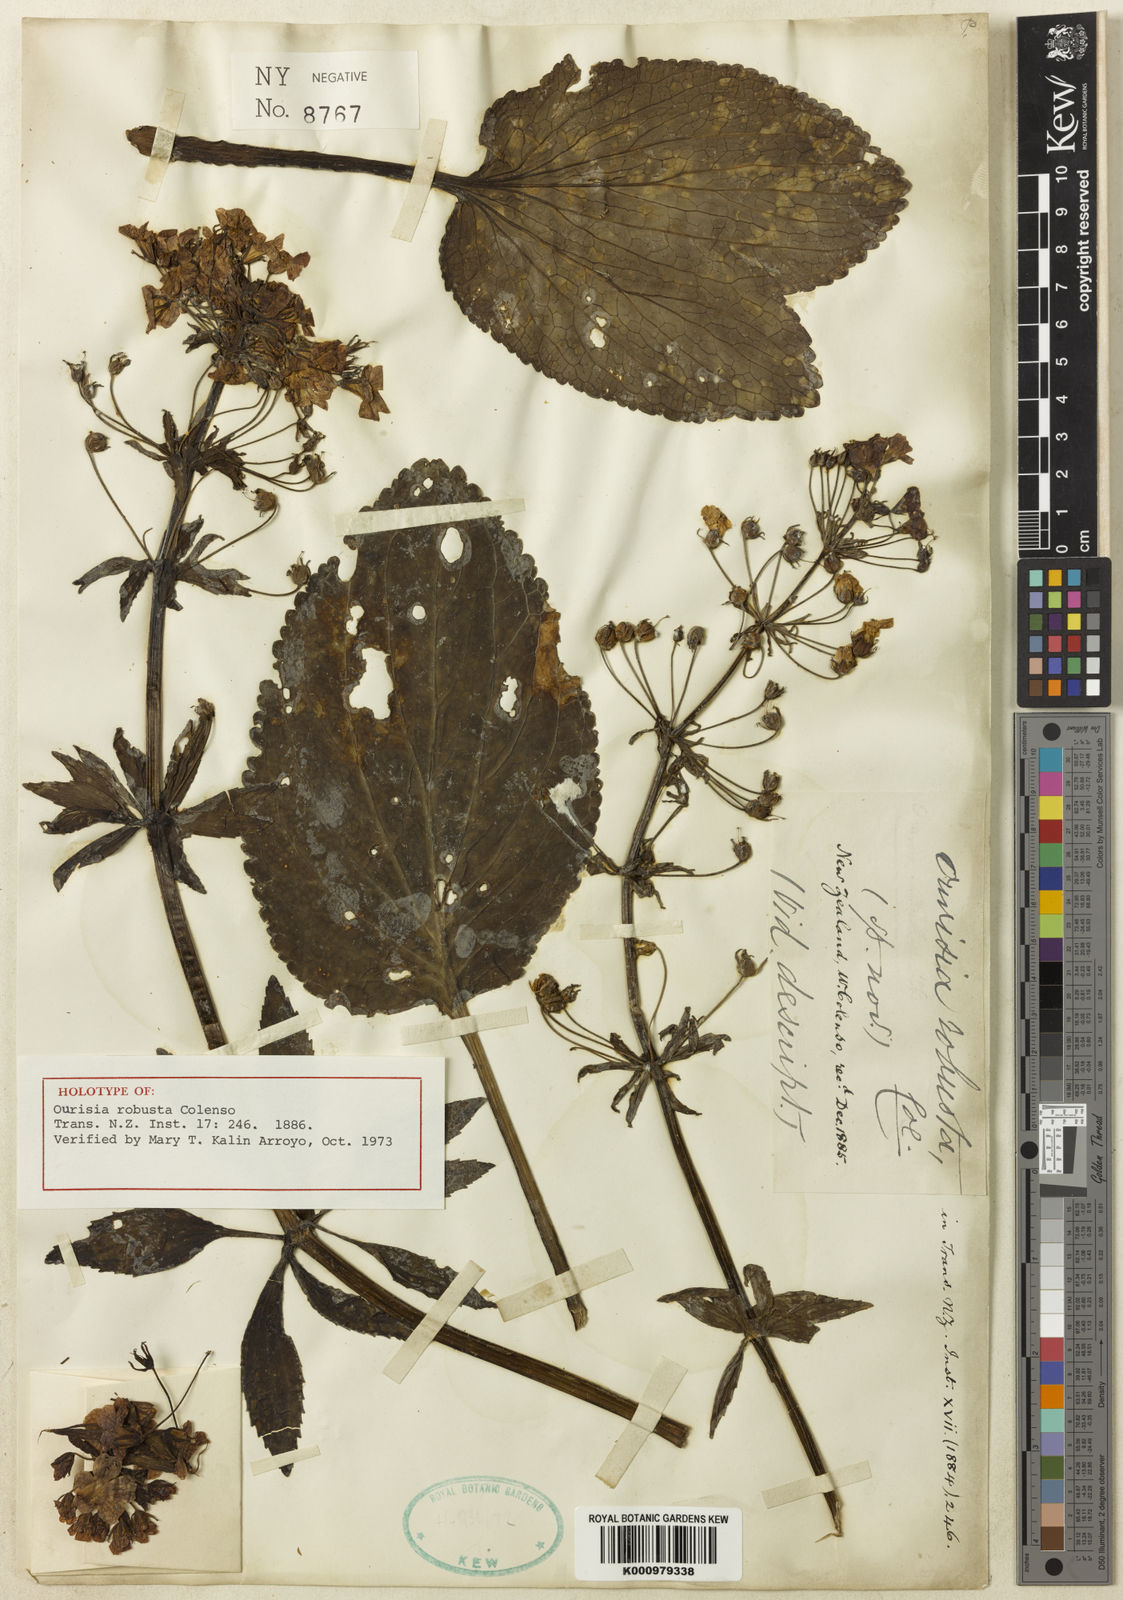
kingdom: Plantae
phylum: Tracheophyta
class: Magnoliopsida
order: Lamiales
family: Plantaginaceae
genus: Ourisia
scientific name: Ourisia macrophylla
